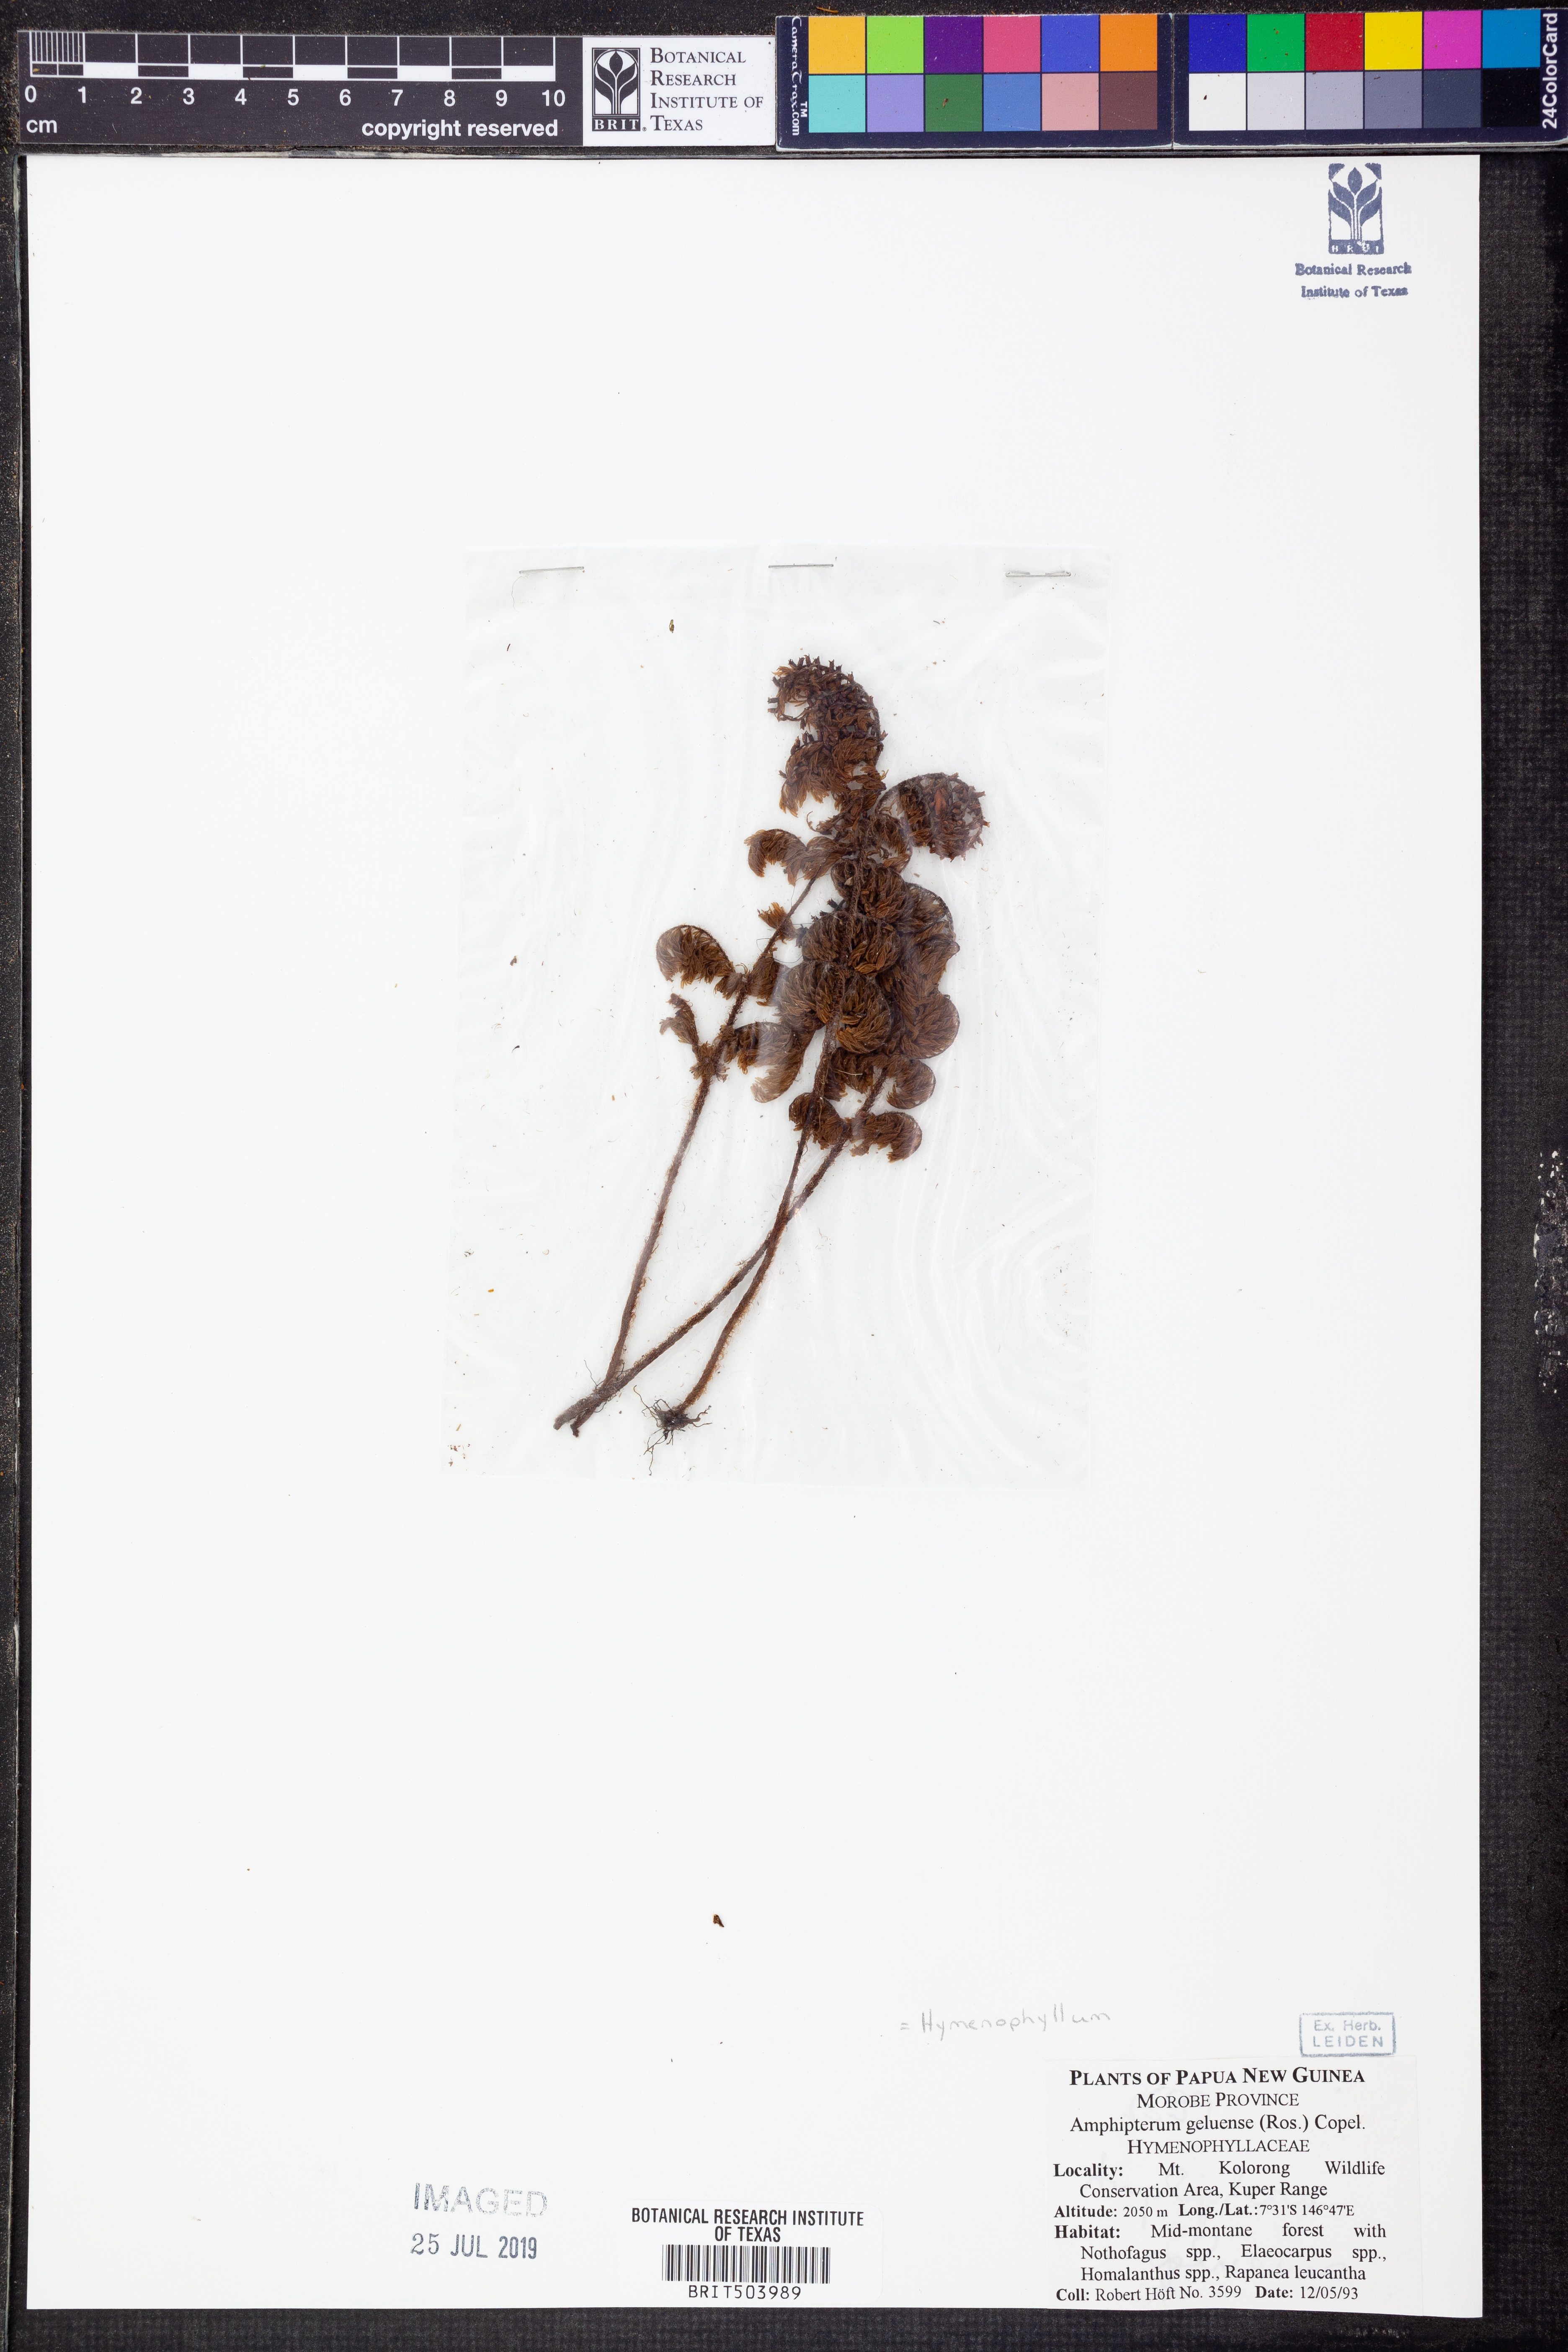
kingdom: Plantae
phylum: Tracheophyta
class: Polypodiopsida
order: Hymenophyllales
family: Hymenophyllaceae
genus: Hymenophyllum
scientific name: Hymenophyllum geluense
